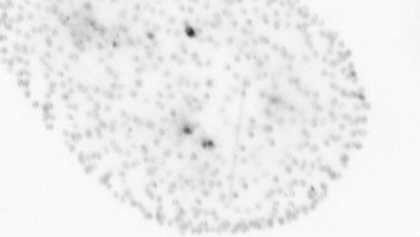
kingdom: Chromista
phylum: Ochrophyta
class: Bacillariophyceae
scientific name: Bacillariophyceae
